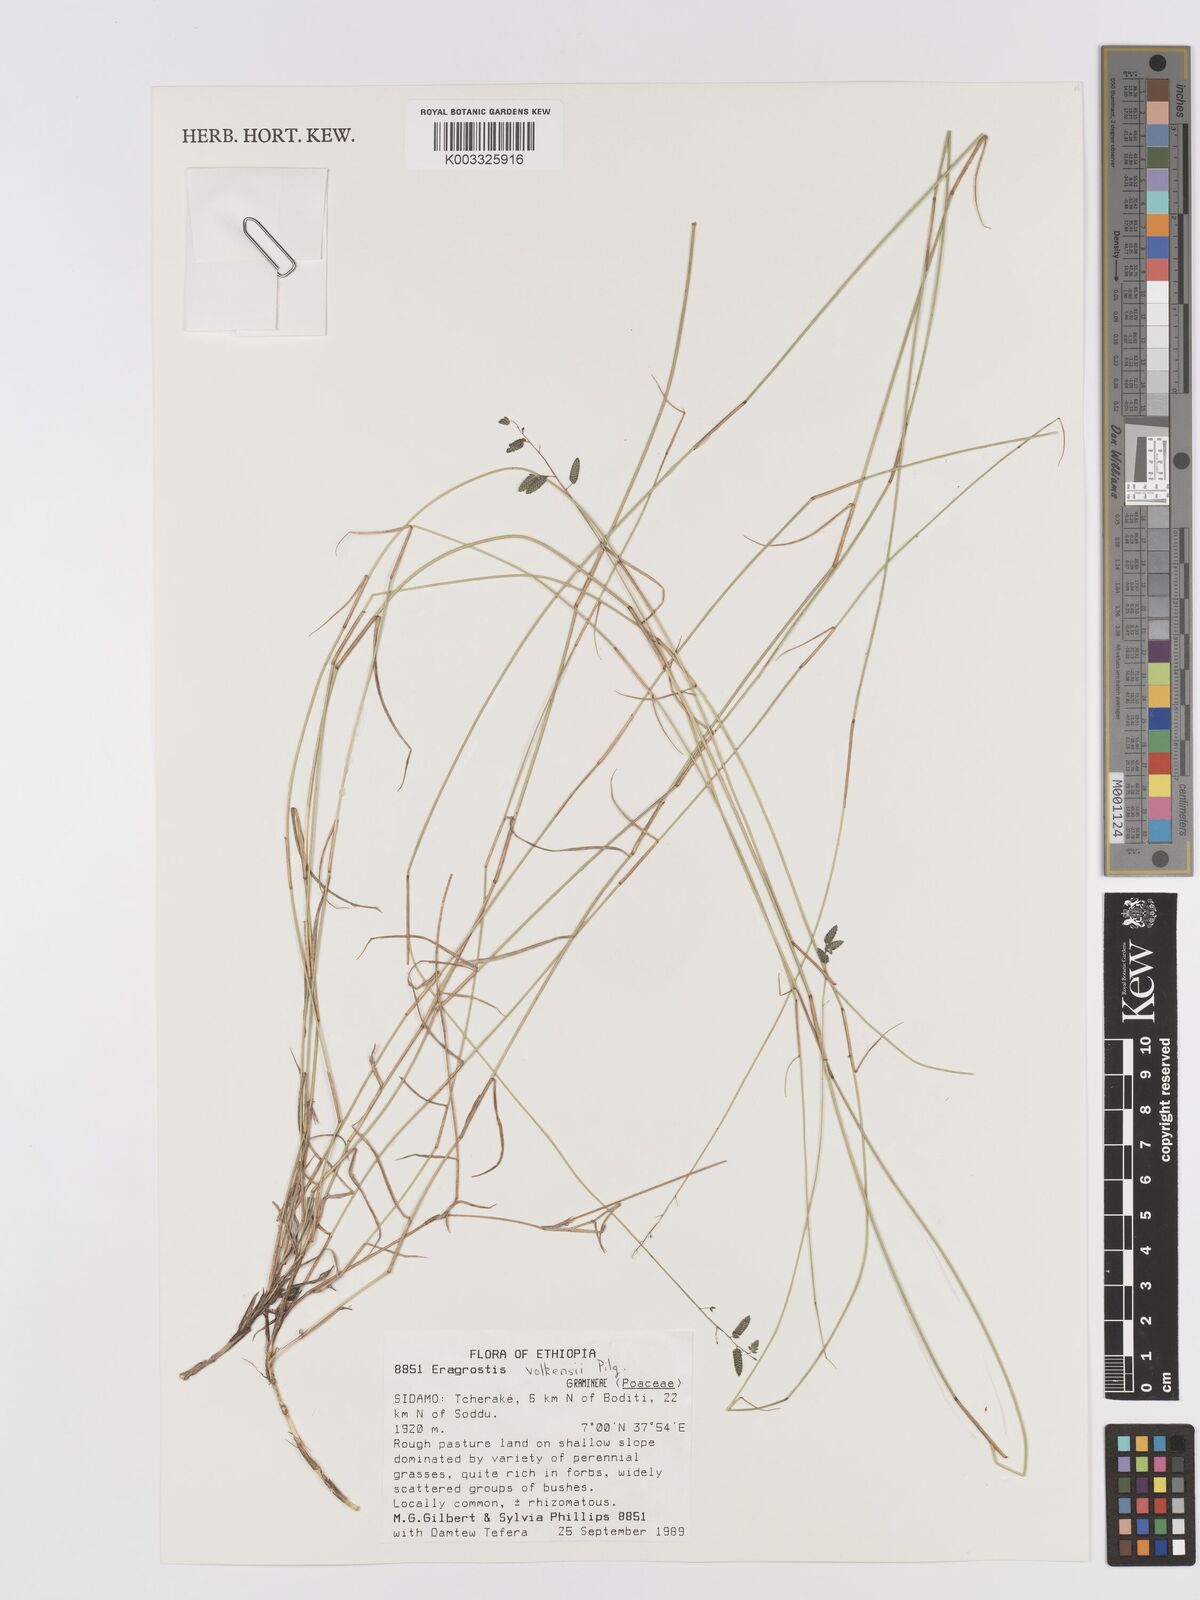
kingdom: Plantae
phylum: Tracheophyta
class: Liliopsida
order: Poales
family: Poaceae
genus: Eragrostis
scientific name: Eragrostis volkensii
